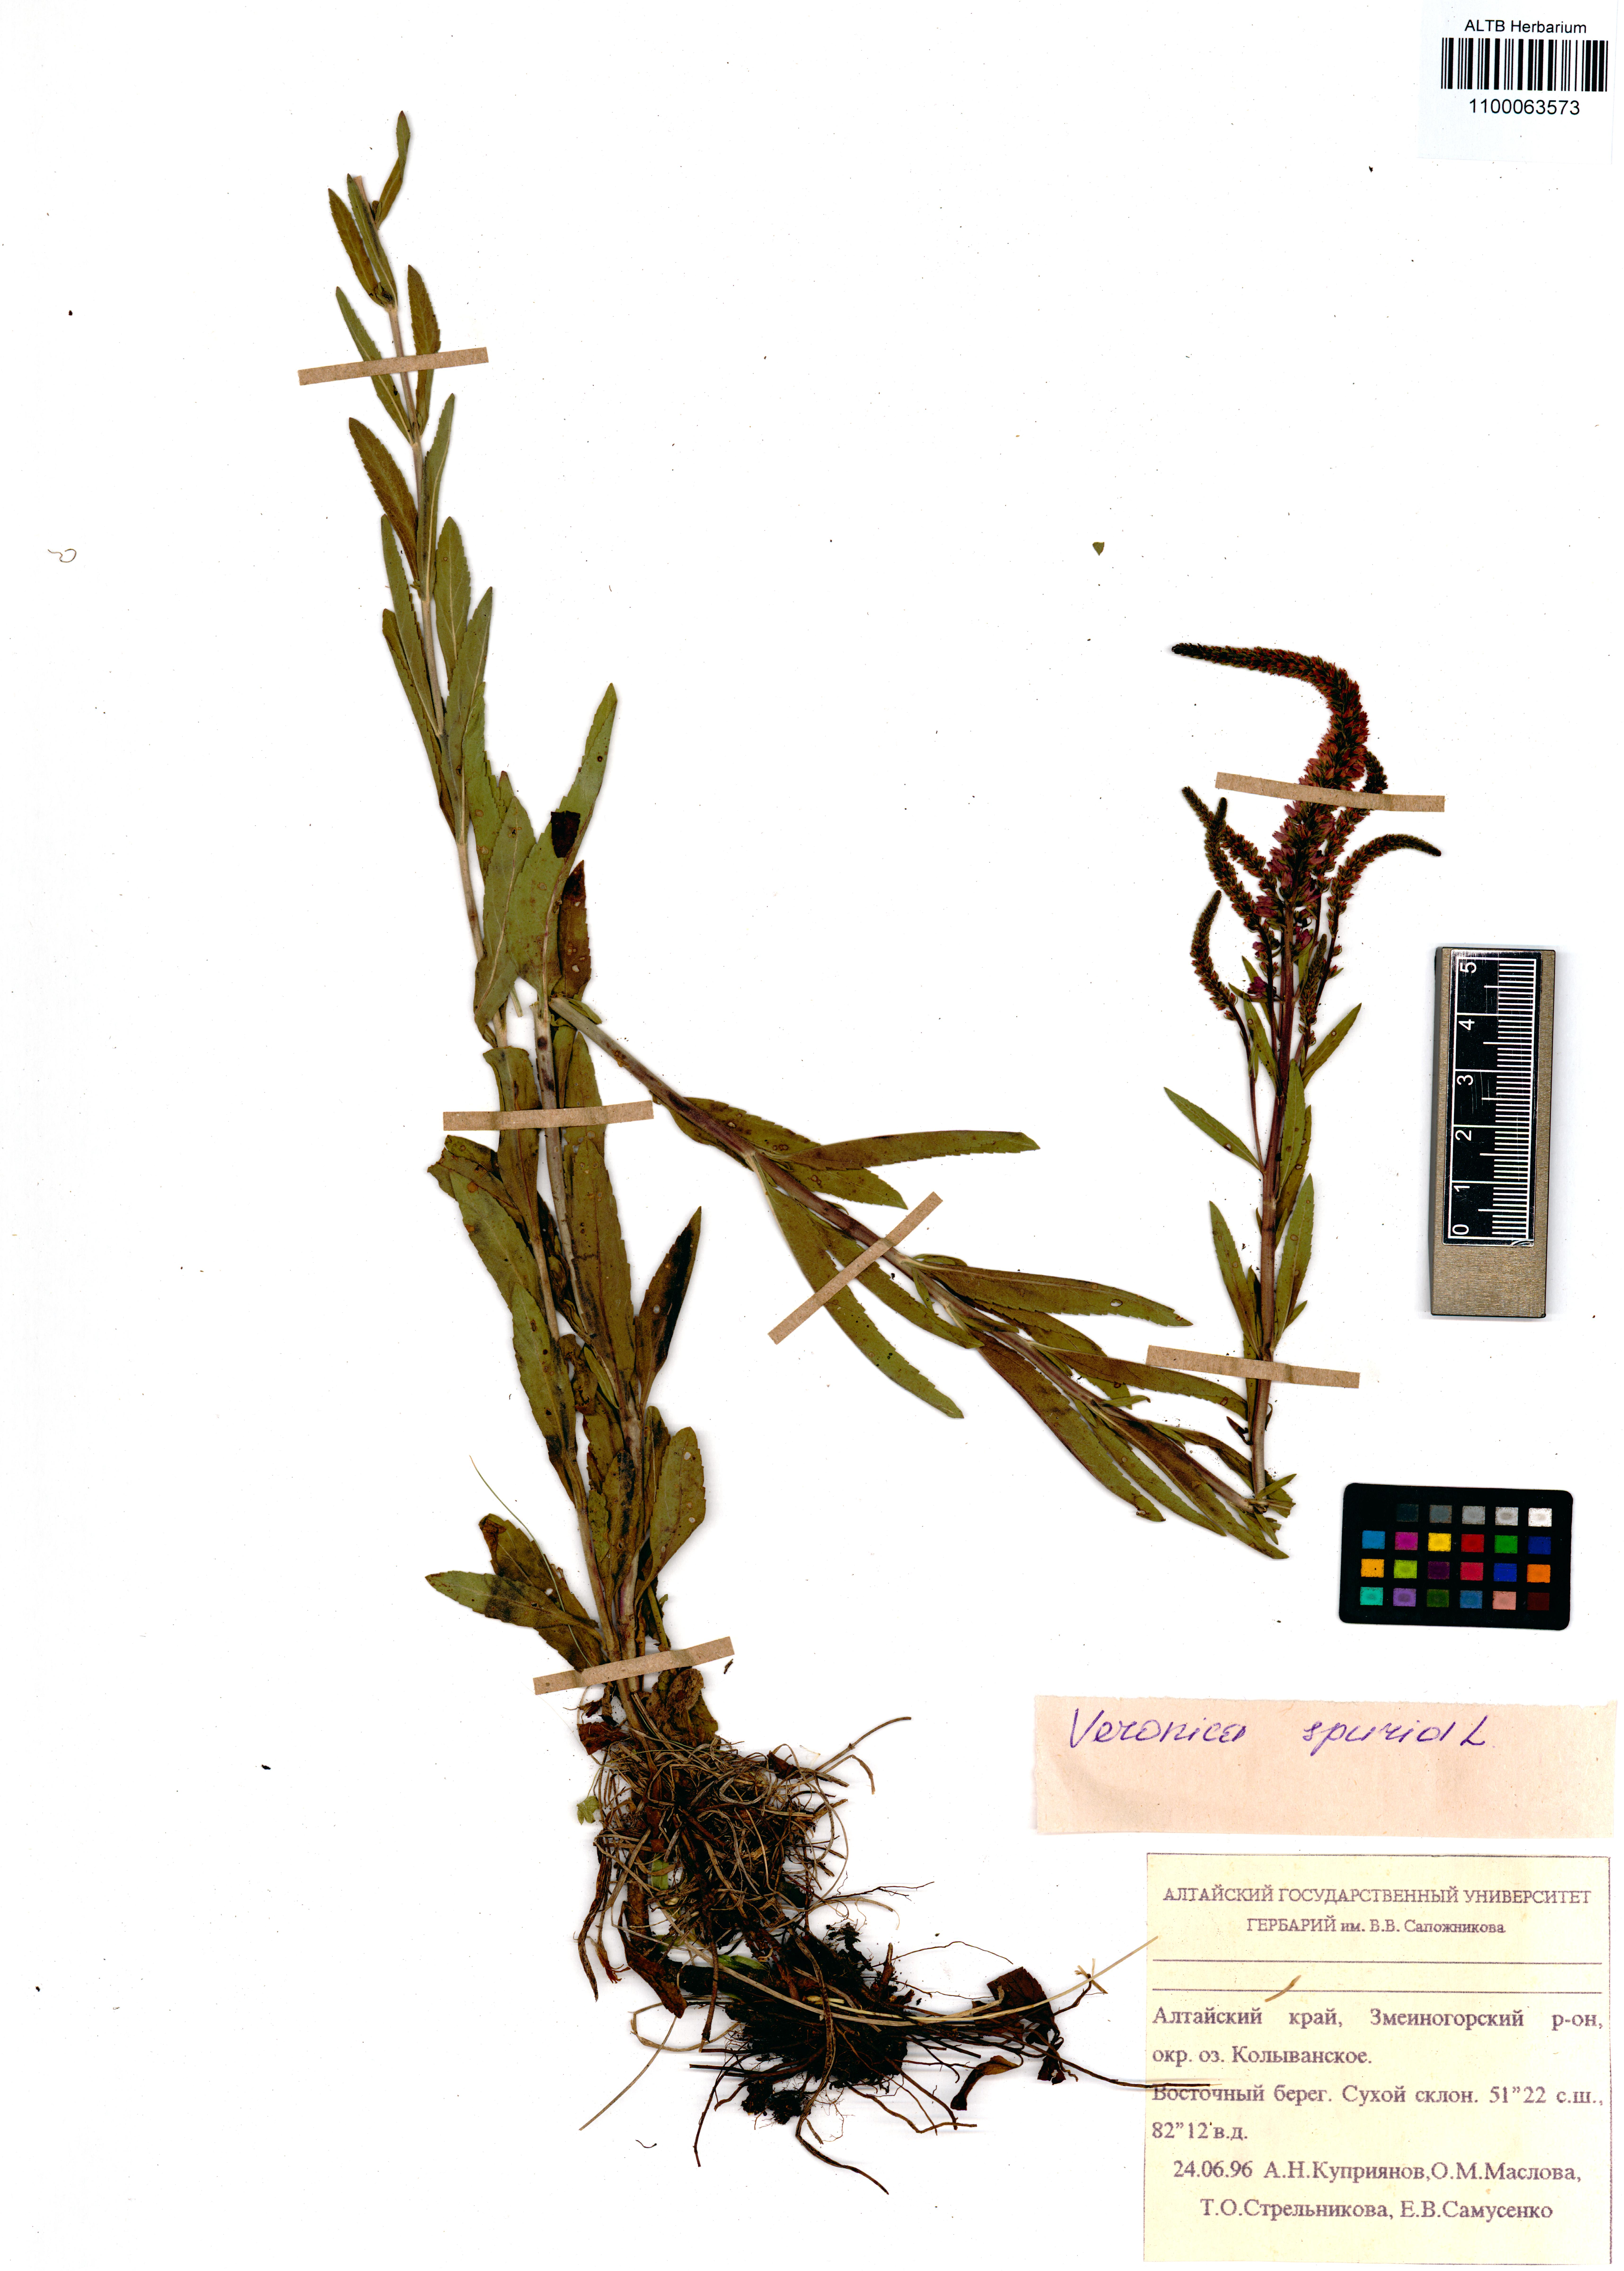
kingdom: Plantae
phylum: Tracheophyta
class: Magnoliopsida
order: Lamiales
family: Plantaginaceae
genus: Veronica
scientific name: Veronica spicata
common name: Spiked speedwell
